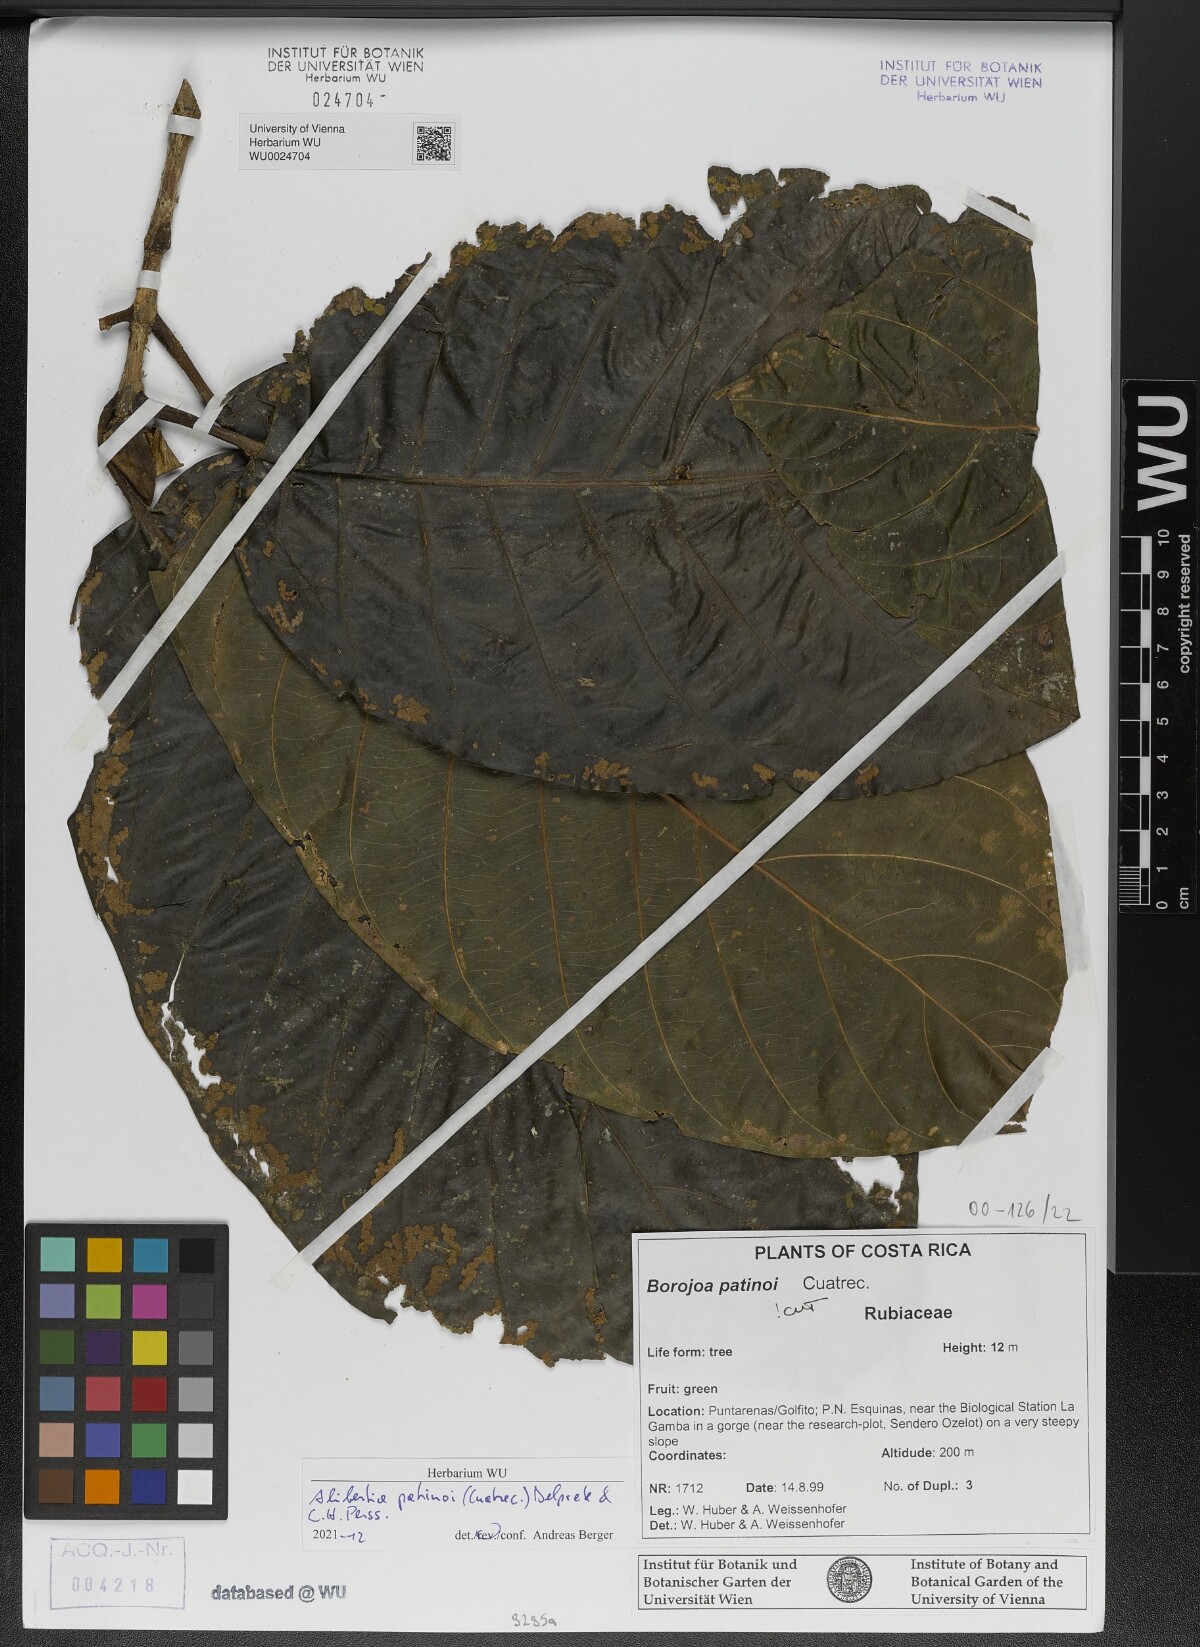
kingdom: Plantae
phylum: Tracheophyta
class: Magnoliopsida
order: Gentianales
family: Rubiaceae
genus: Alibertia
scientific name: Alibertia patinoi
